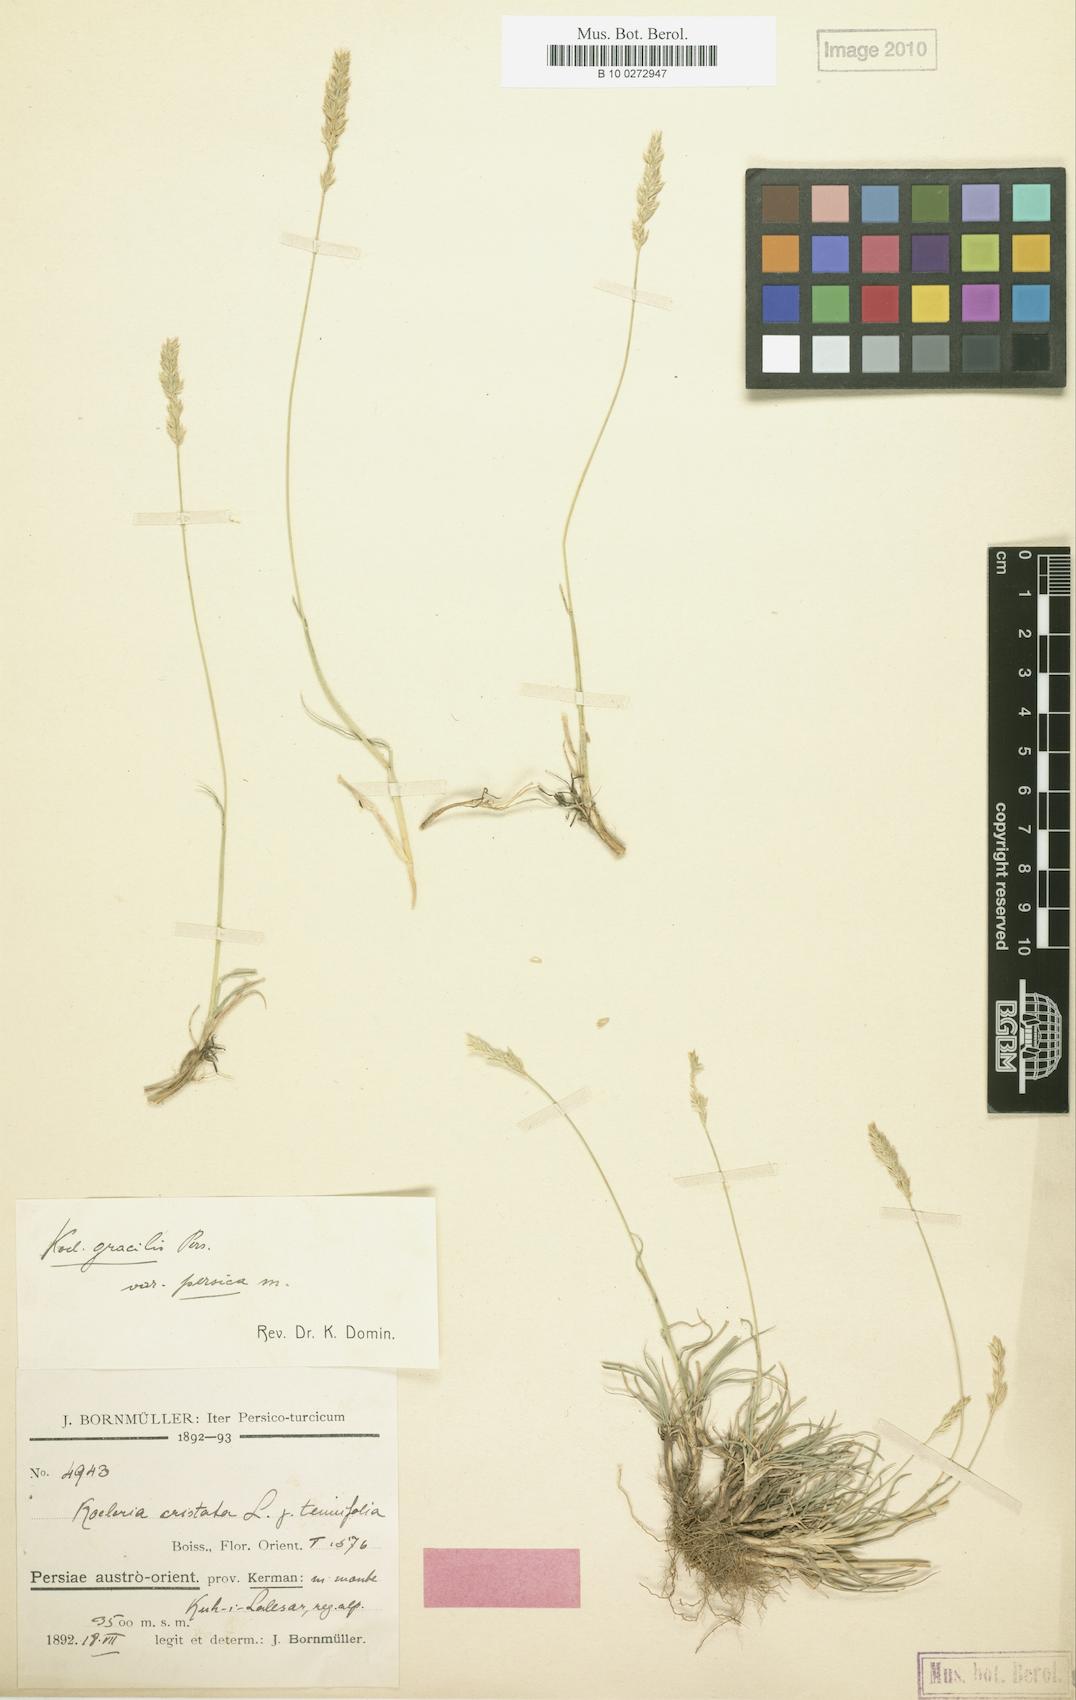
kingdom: Plantae
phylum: Tracheophyta
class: Liliopsida
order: Poales
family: Poaceae
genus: Koeleria
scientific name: Koeleria
